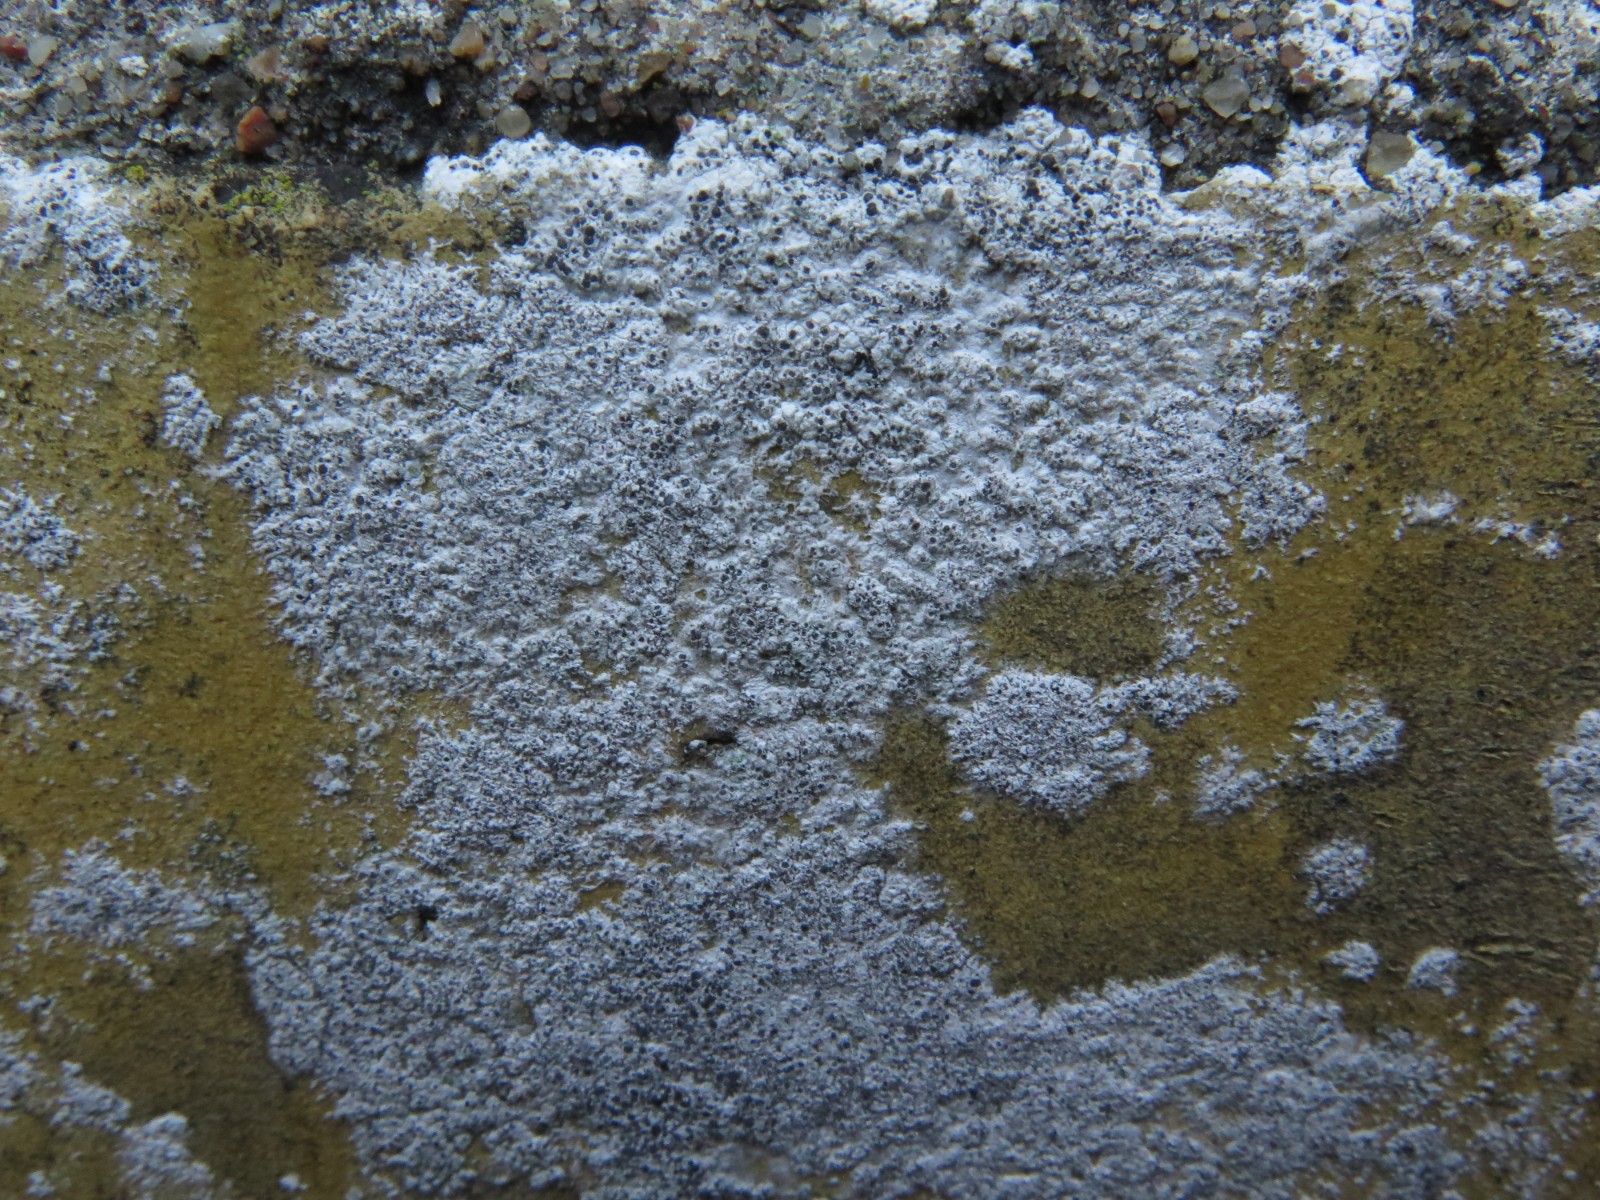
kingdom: Fungi
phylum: Ascomycota
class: Lecanoromycetes
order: Lecanorales
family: Lecanoraceae
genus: Polyozosia
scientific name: Polyozosia albescens
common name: cement-kantskivelav
